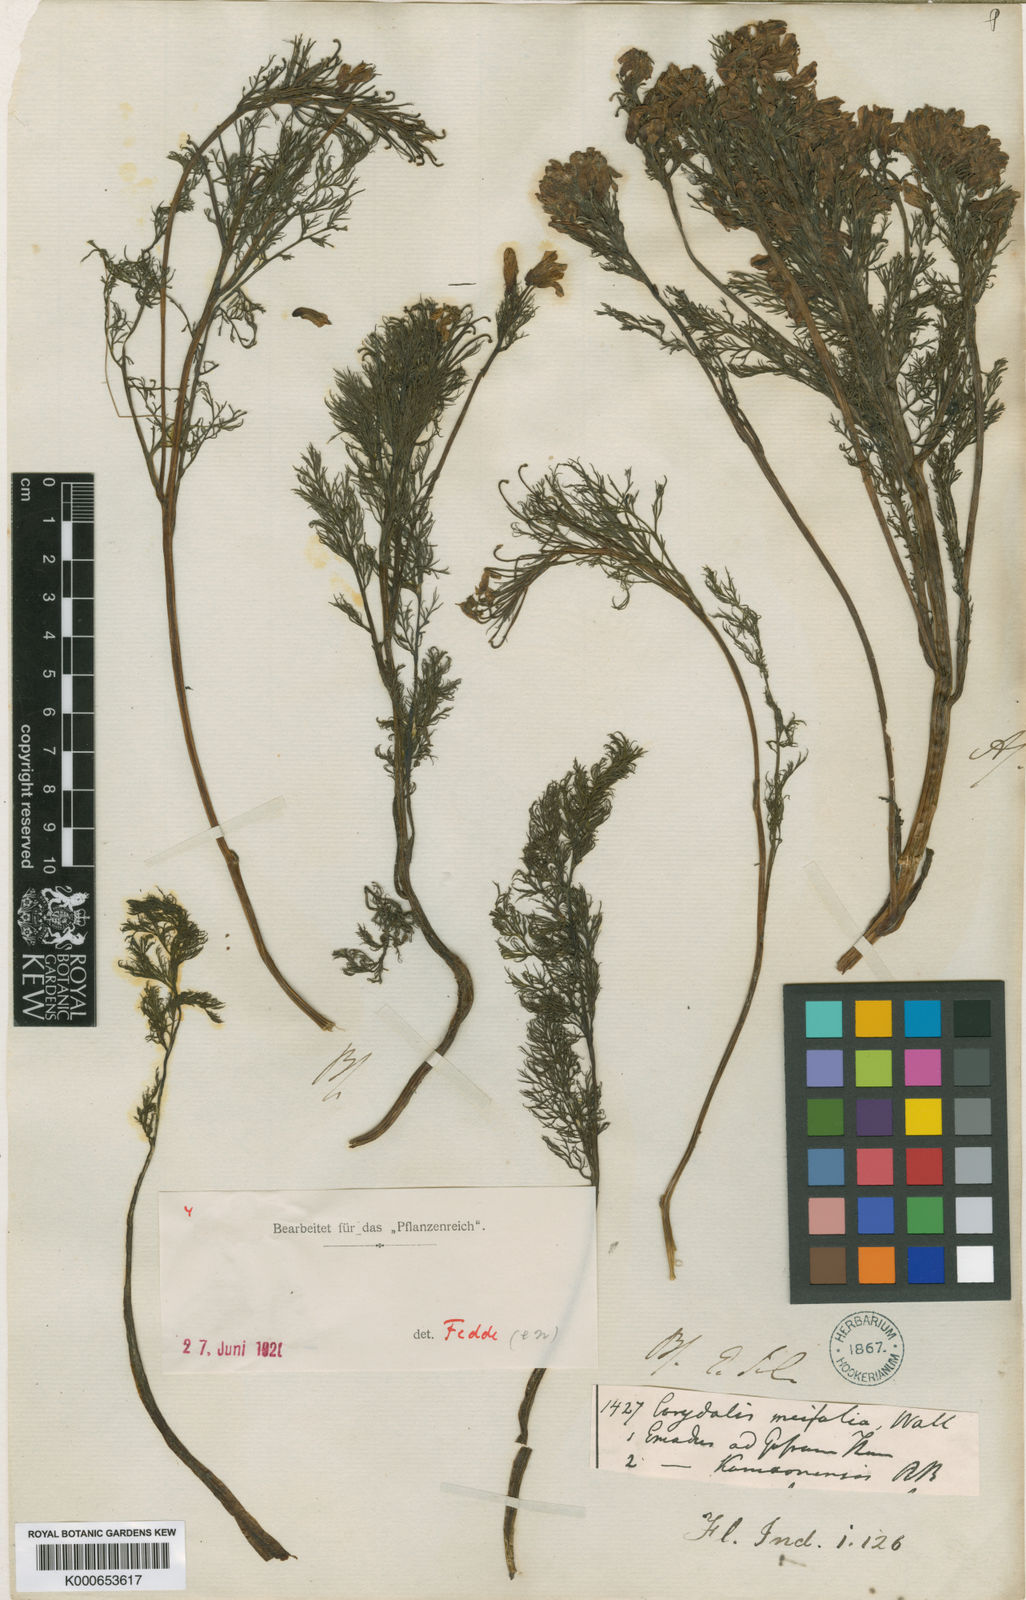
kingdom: Plantae
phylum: Tracheophyta
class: Magnoliopsida
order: Ranunculales
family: Papaveraceae
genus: Corydalis
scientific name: Corydalis meifolia
